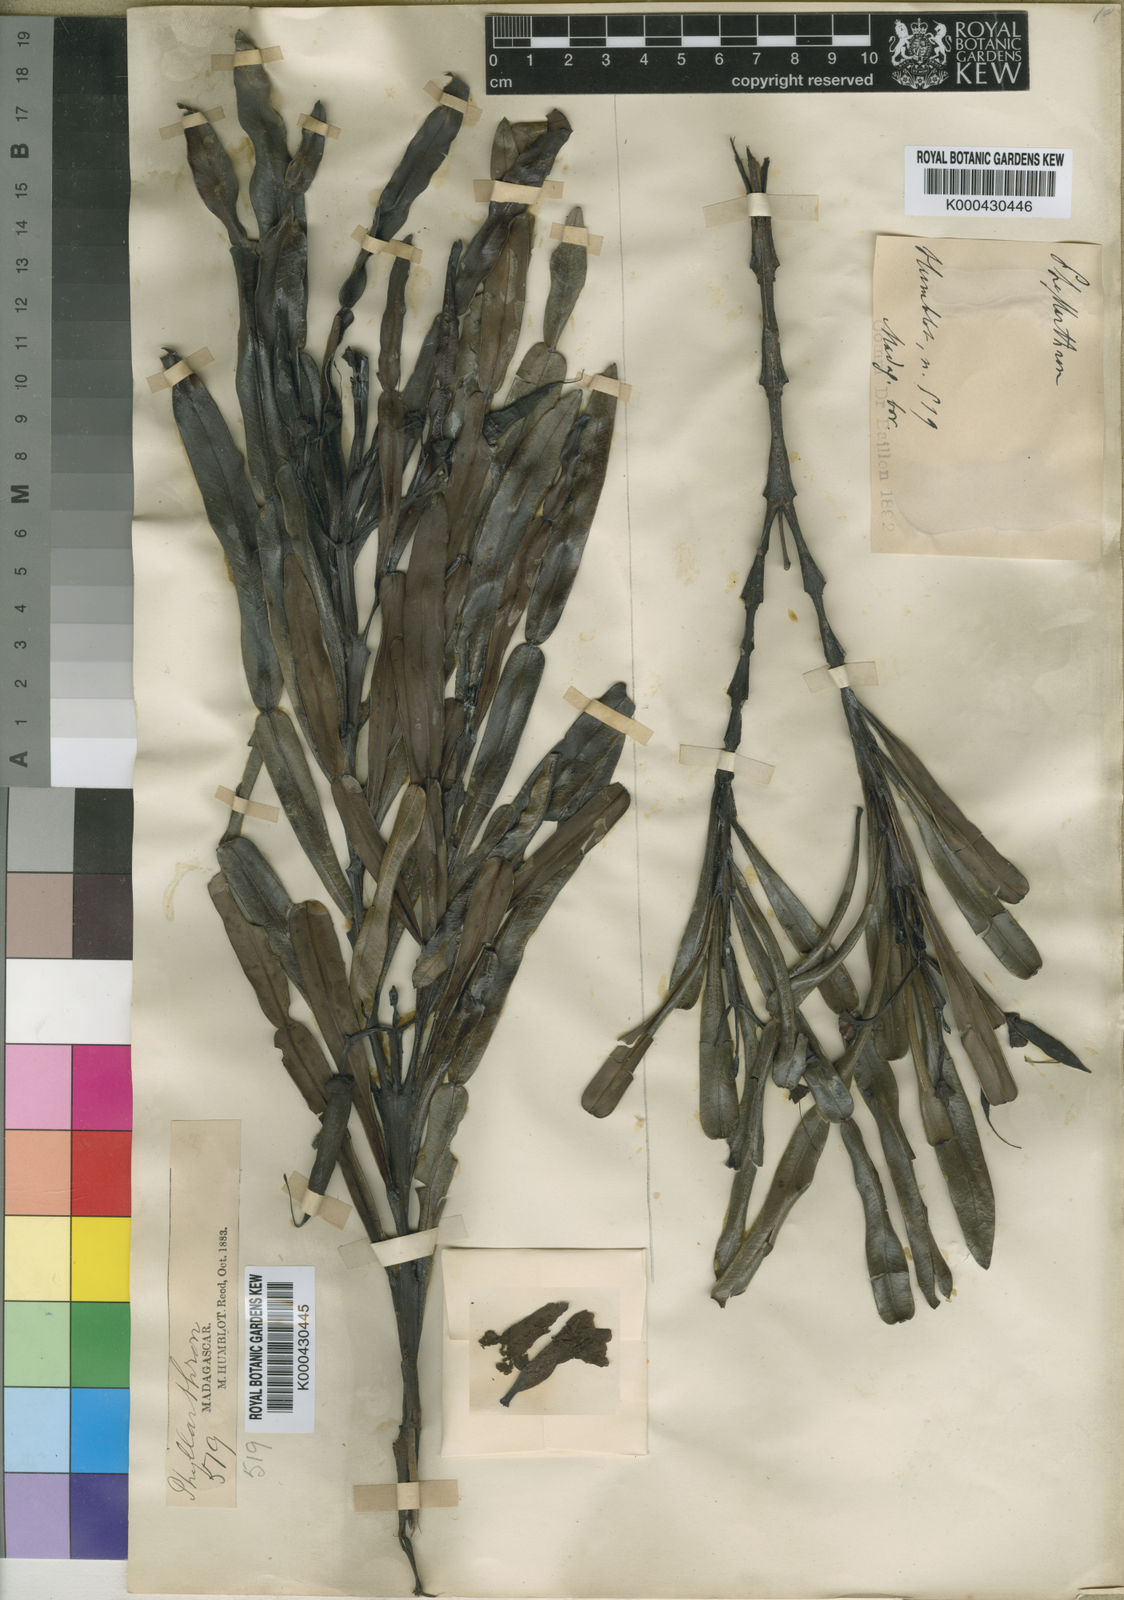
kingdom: Plantae
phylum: Tracheophyta
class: Magnoliopsida
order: Lamiales
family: Bignoniaceae
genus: Phyllarthron
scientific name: Phyllarthron humblotianum
